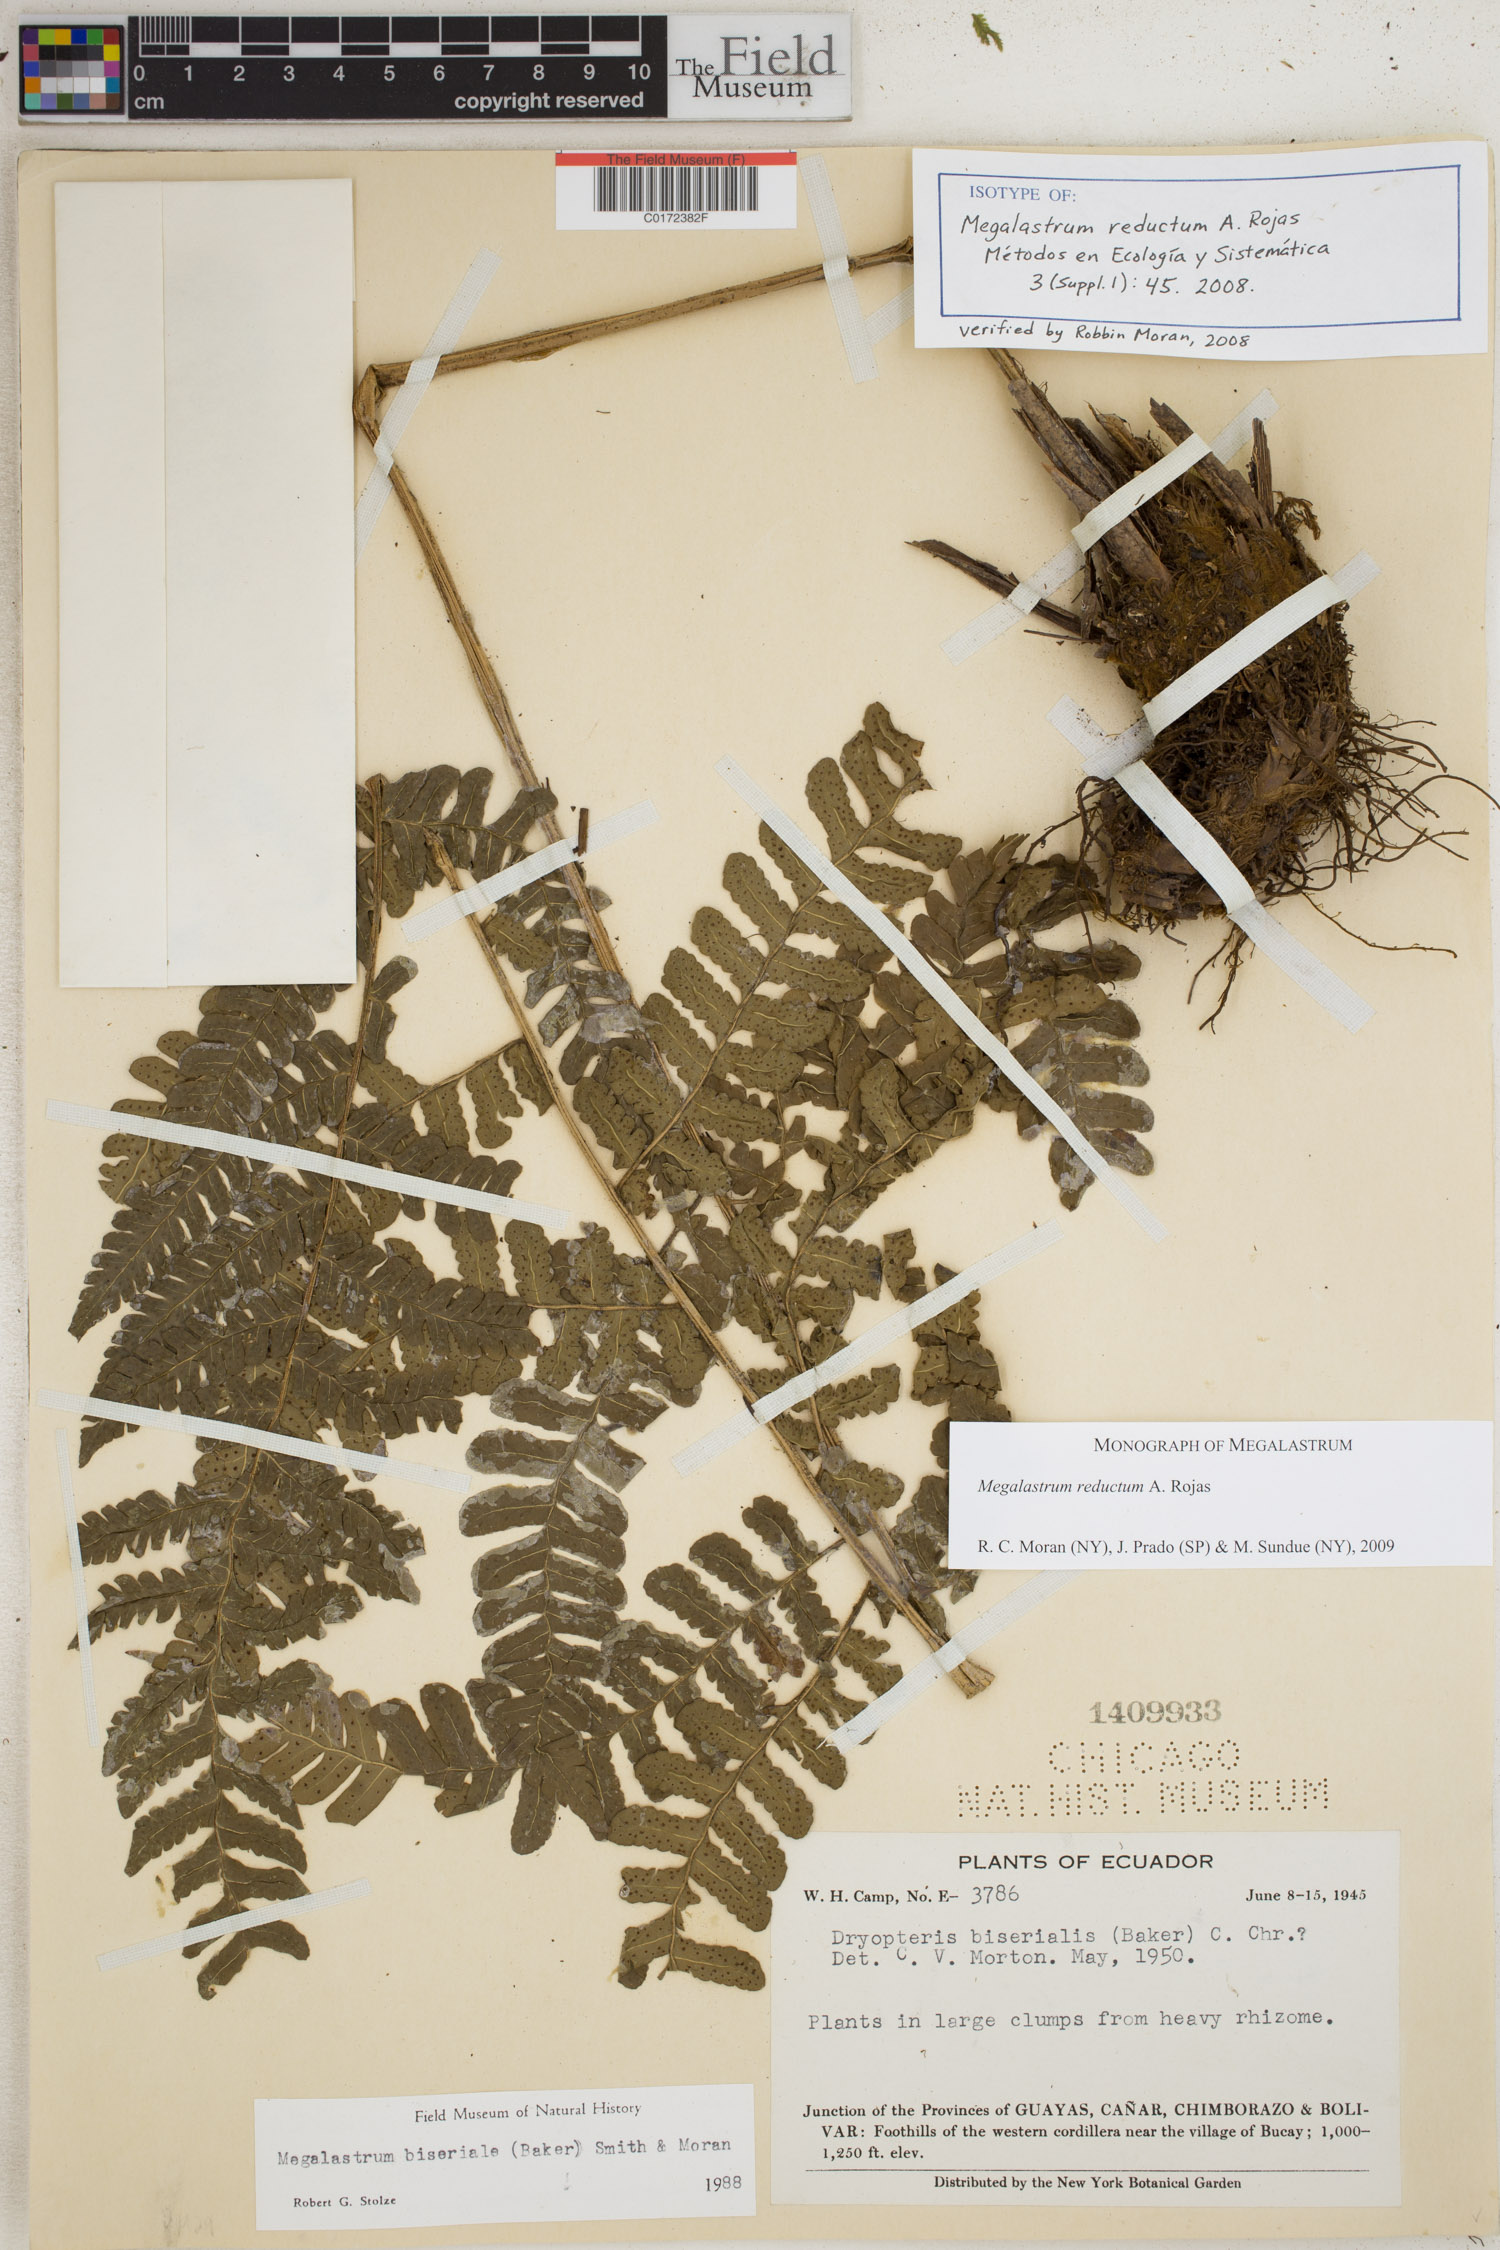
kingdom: Plantae
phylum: Tracheophyta
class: Polypodiopsida
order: Polypodiales
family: Dryopteridaceae
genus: Megalastrum
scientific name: Megalastrum reductum
